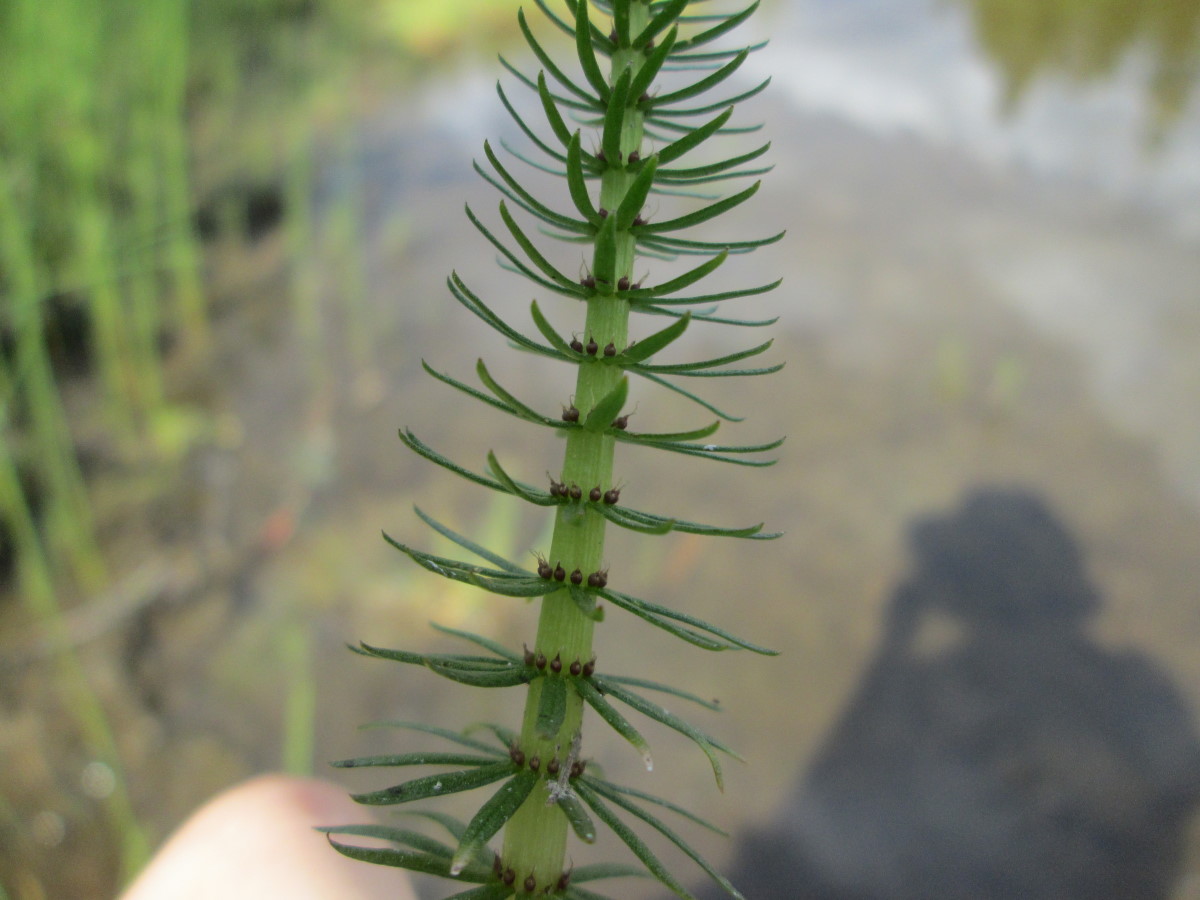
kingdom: Plantae
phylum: Tracheophyta
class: Magnoliopsida
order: Lamiales
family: Plantaginaceae
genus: Hippuris
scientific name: Hippuris vulgaris
